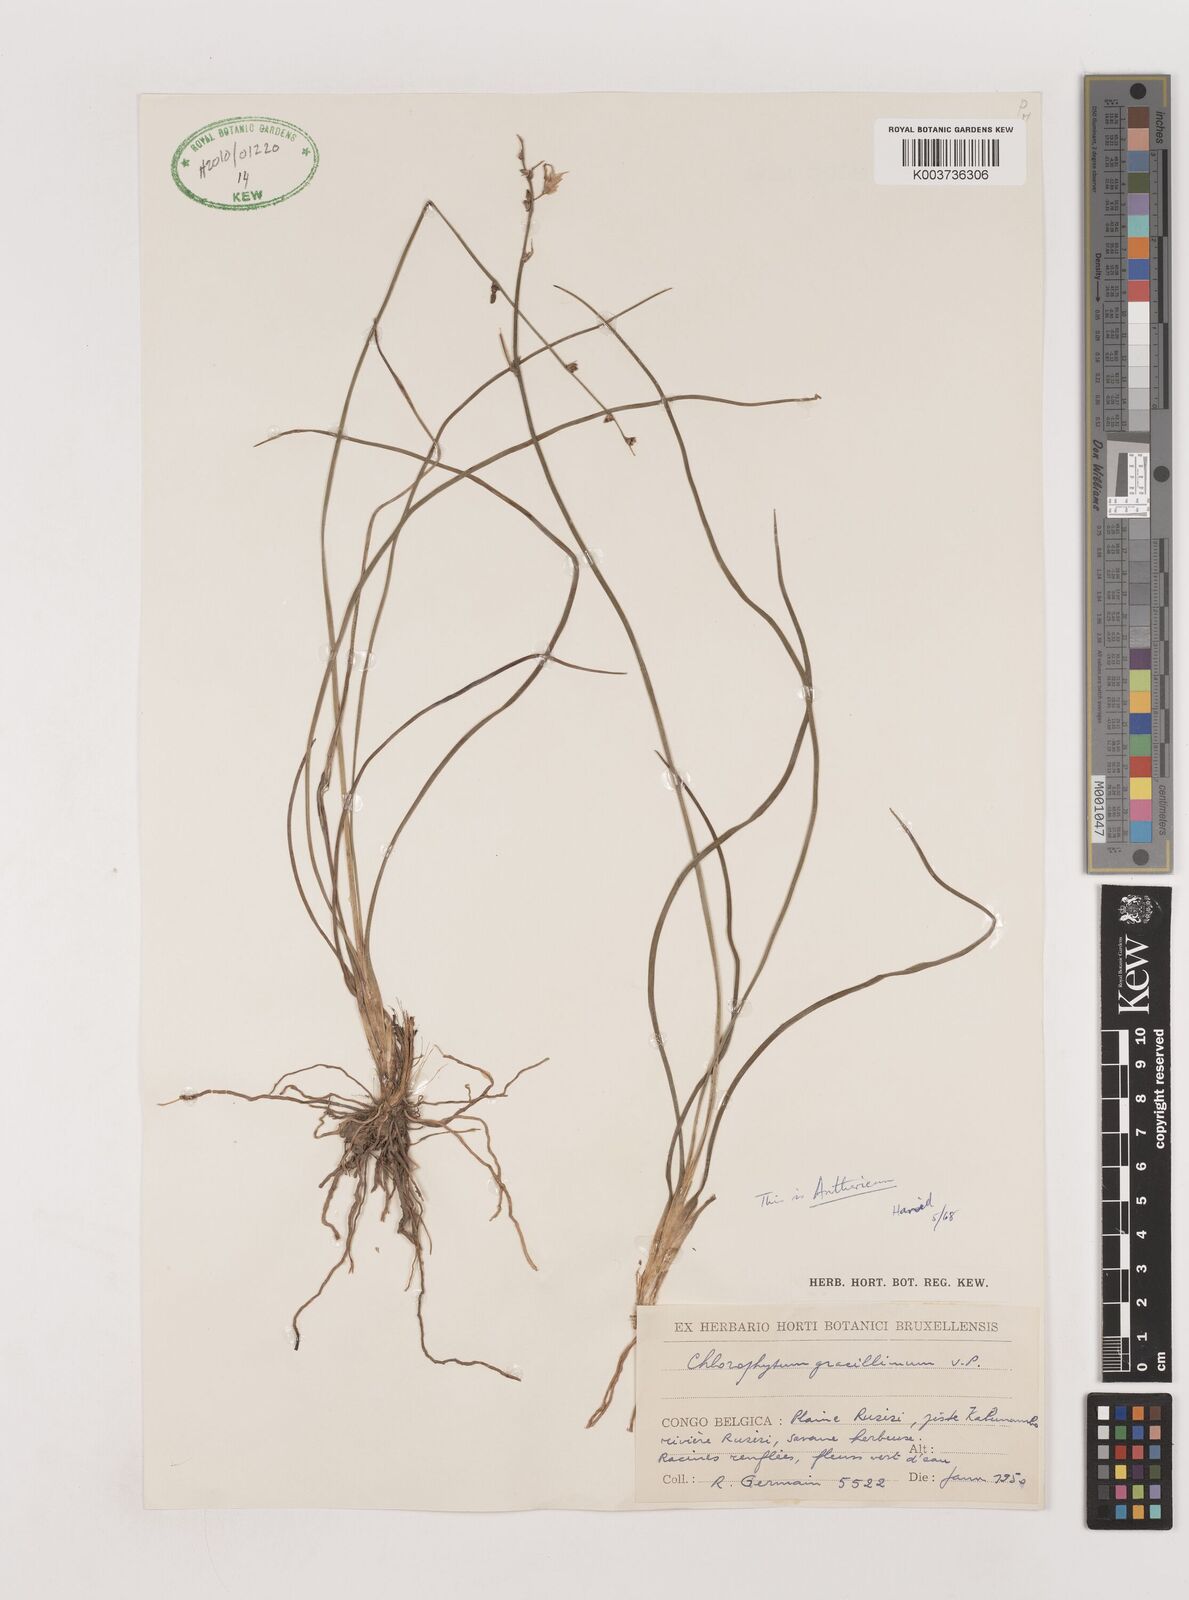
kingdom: Plantae
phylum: Tracheophyta
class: Liliopsida
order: Asparagales
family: Asparagaceae
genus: Anthericum
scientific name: Anthericum gracillimum
